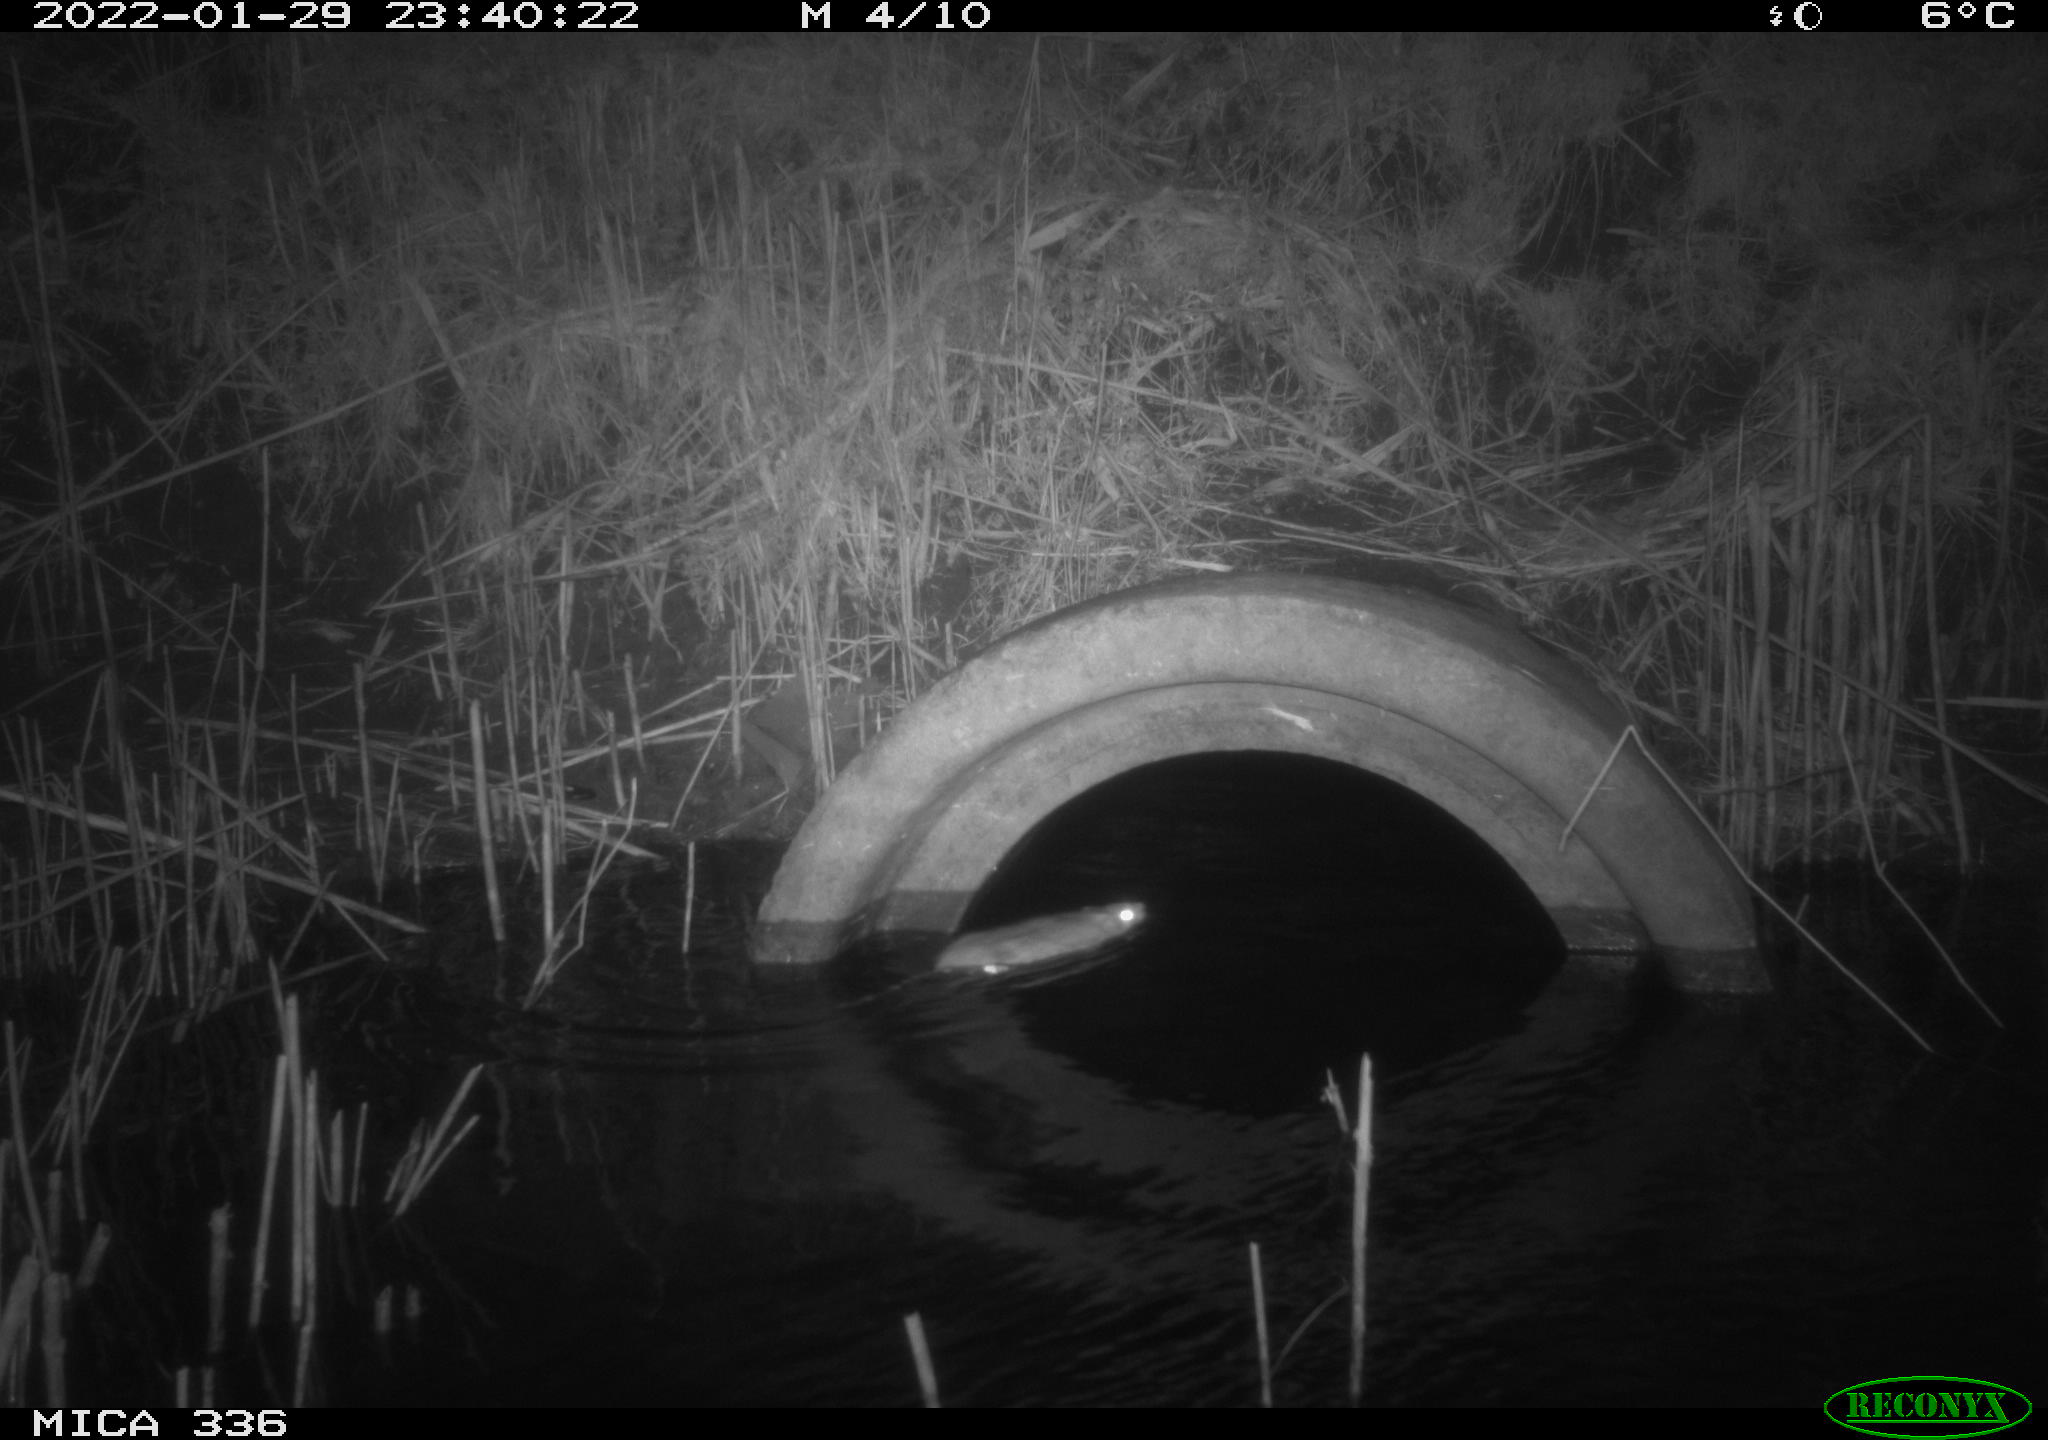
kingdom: Animalia
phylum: Chordata
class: Mammalia
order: Rodentia
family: Muridae
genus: Rattus
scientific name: Rattus norvegicus
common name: Brown rat
